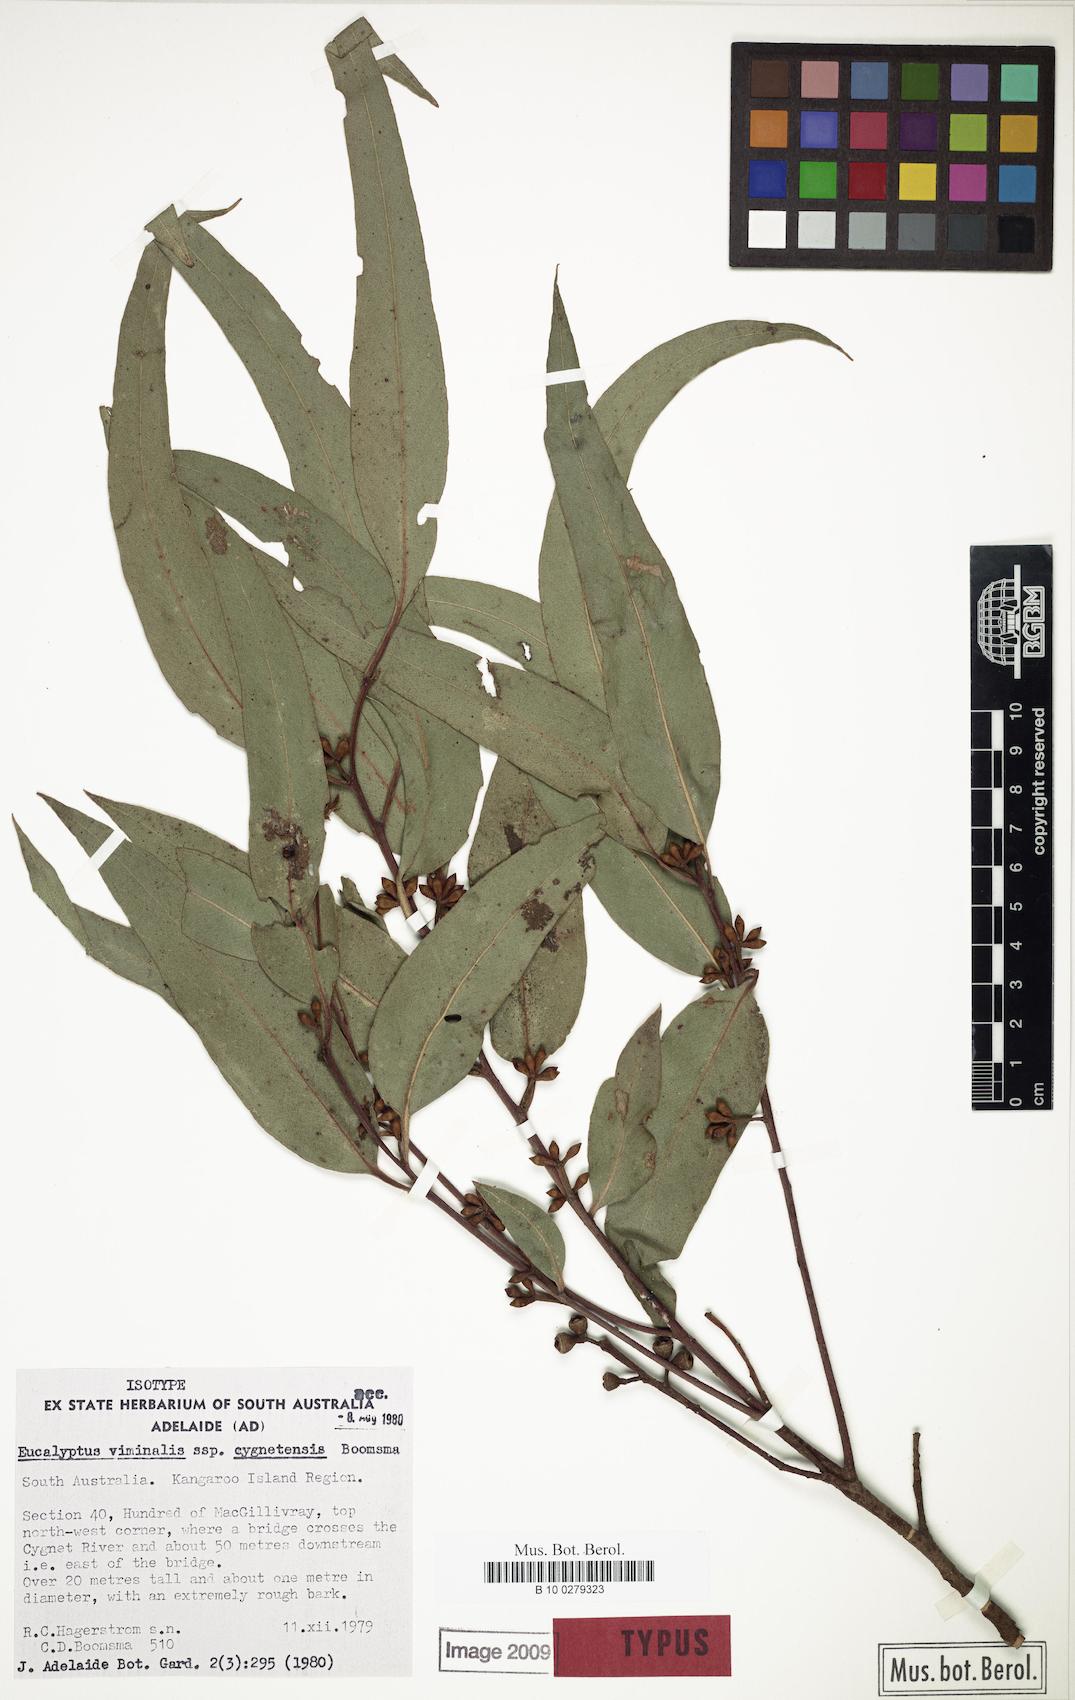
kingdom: Plantae
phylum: Tracheophyta
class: Magnoliopsida
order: Myrtales
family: Myrtaceae
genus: Eucalyptus
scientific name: Eucalyptus viminalis
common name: Manna gum
